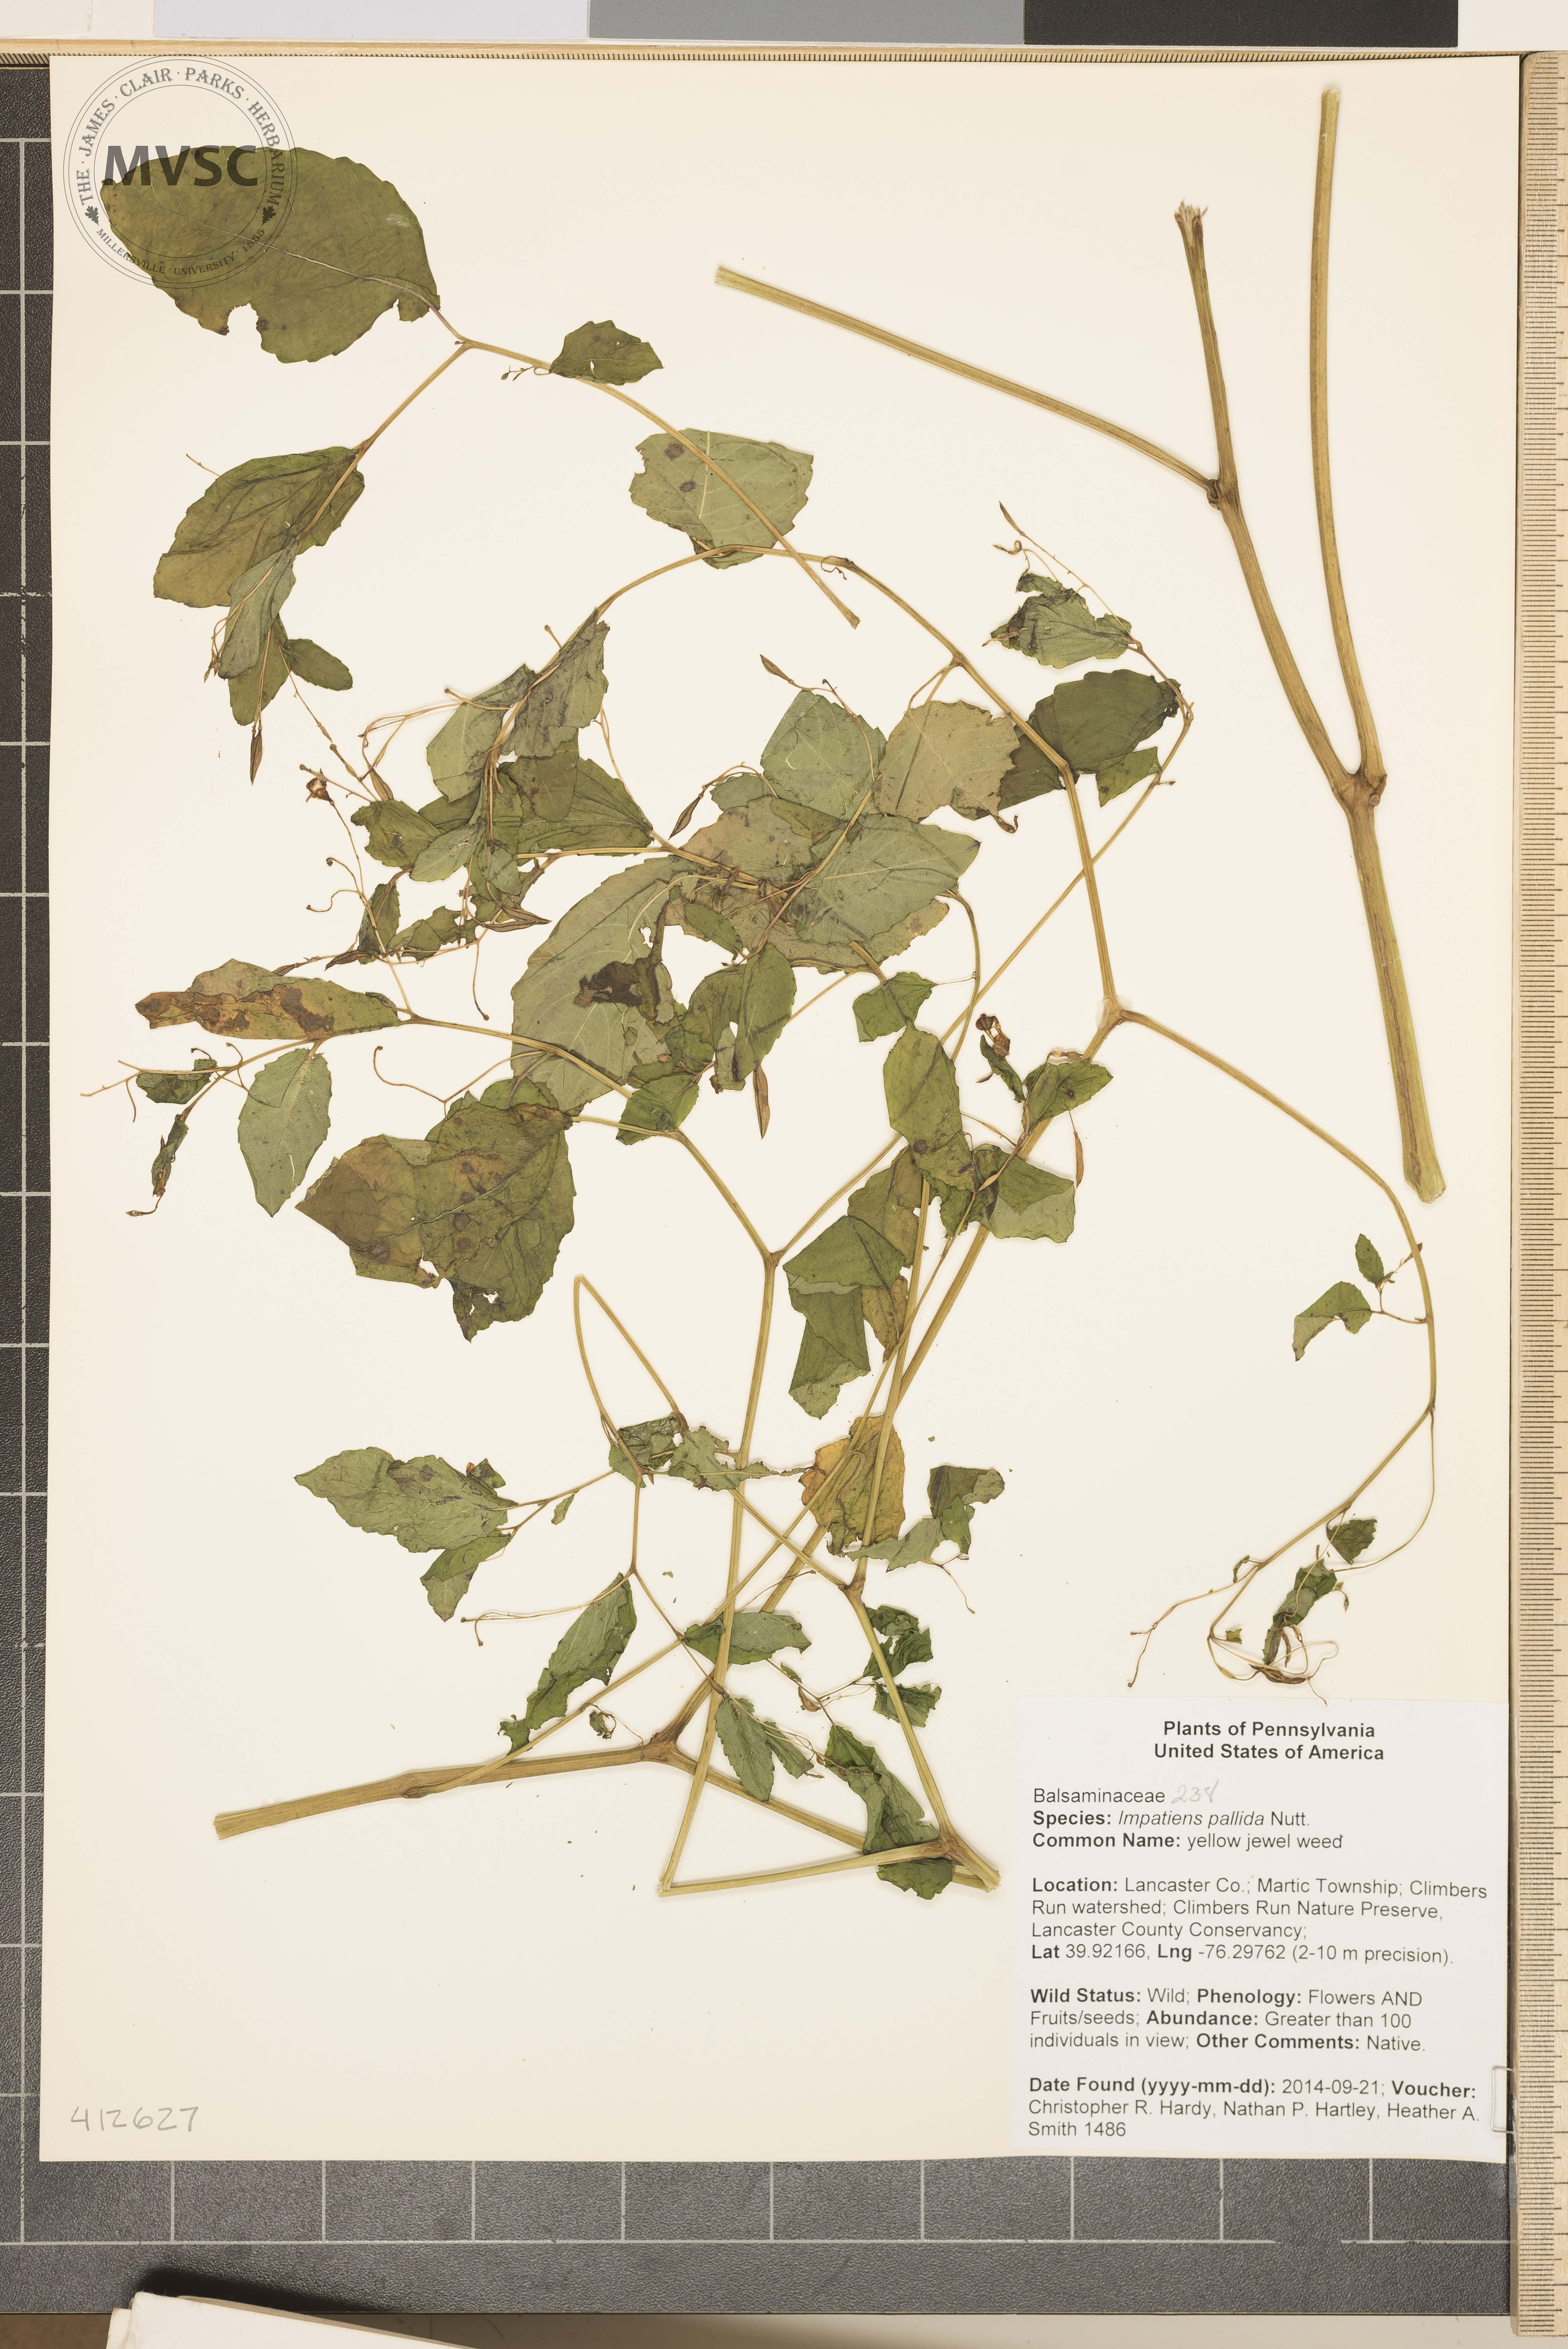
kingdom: Plantae
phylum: Tracheophyta
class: Magnoliopsida
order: Ericales
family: Balsaminaceae
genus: Impatiens
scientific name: Impatiens pallida
